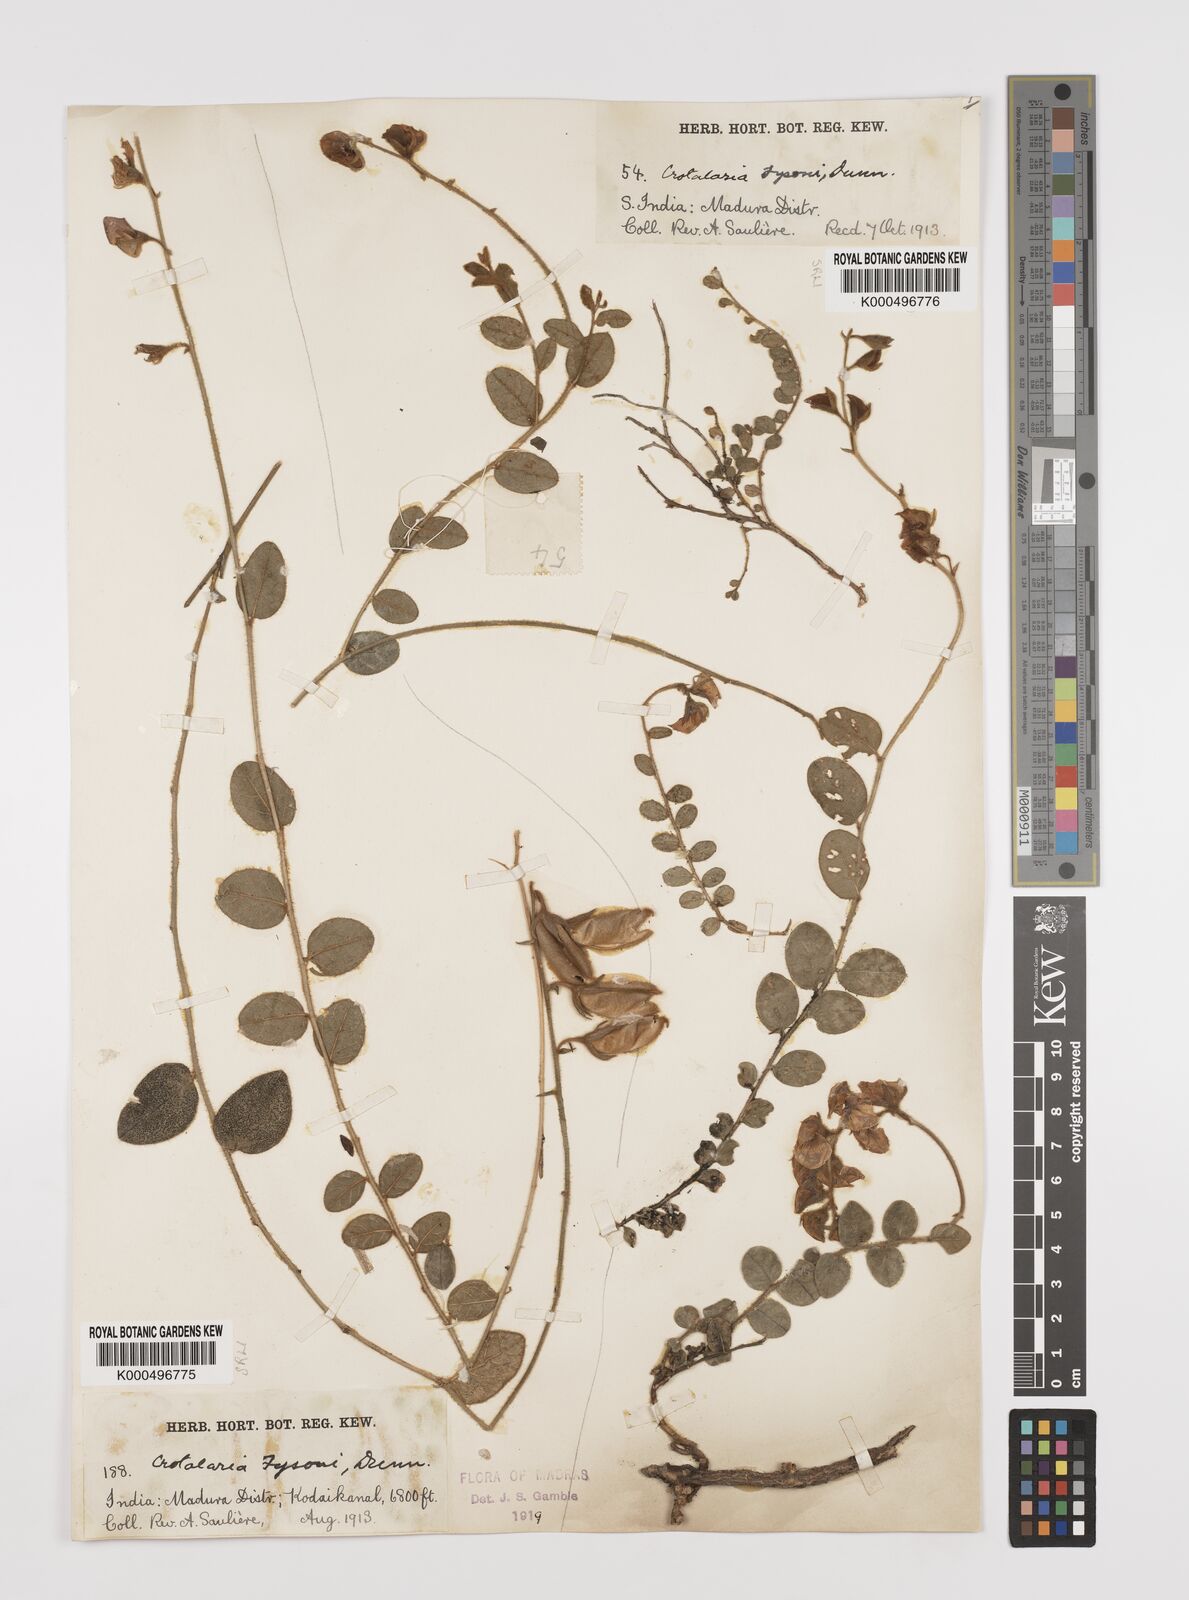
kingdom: Plantae
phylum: Tracheophyta
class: Magnoliopsida
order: Fabales
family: Fabaceae
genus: Crotalaria
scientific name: Crotalaria fysonii
